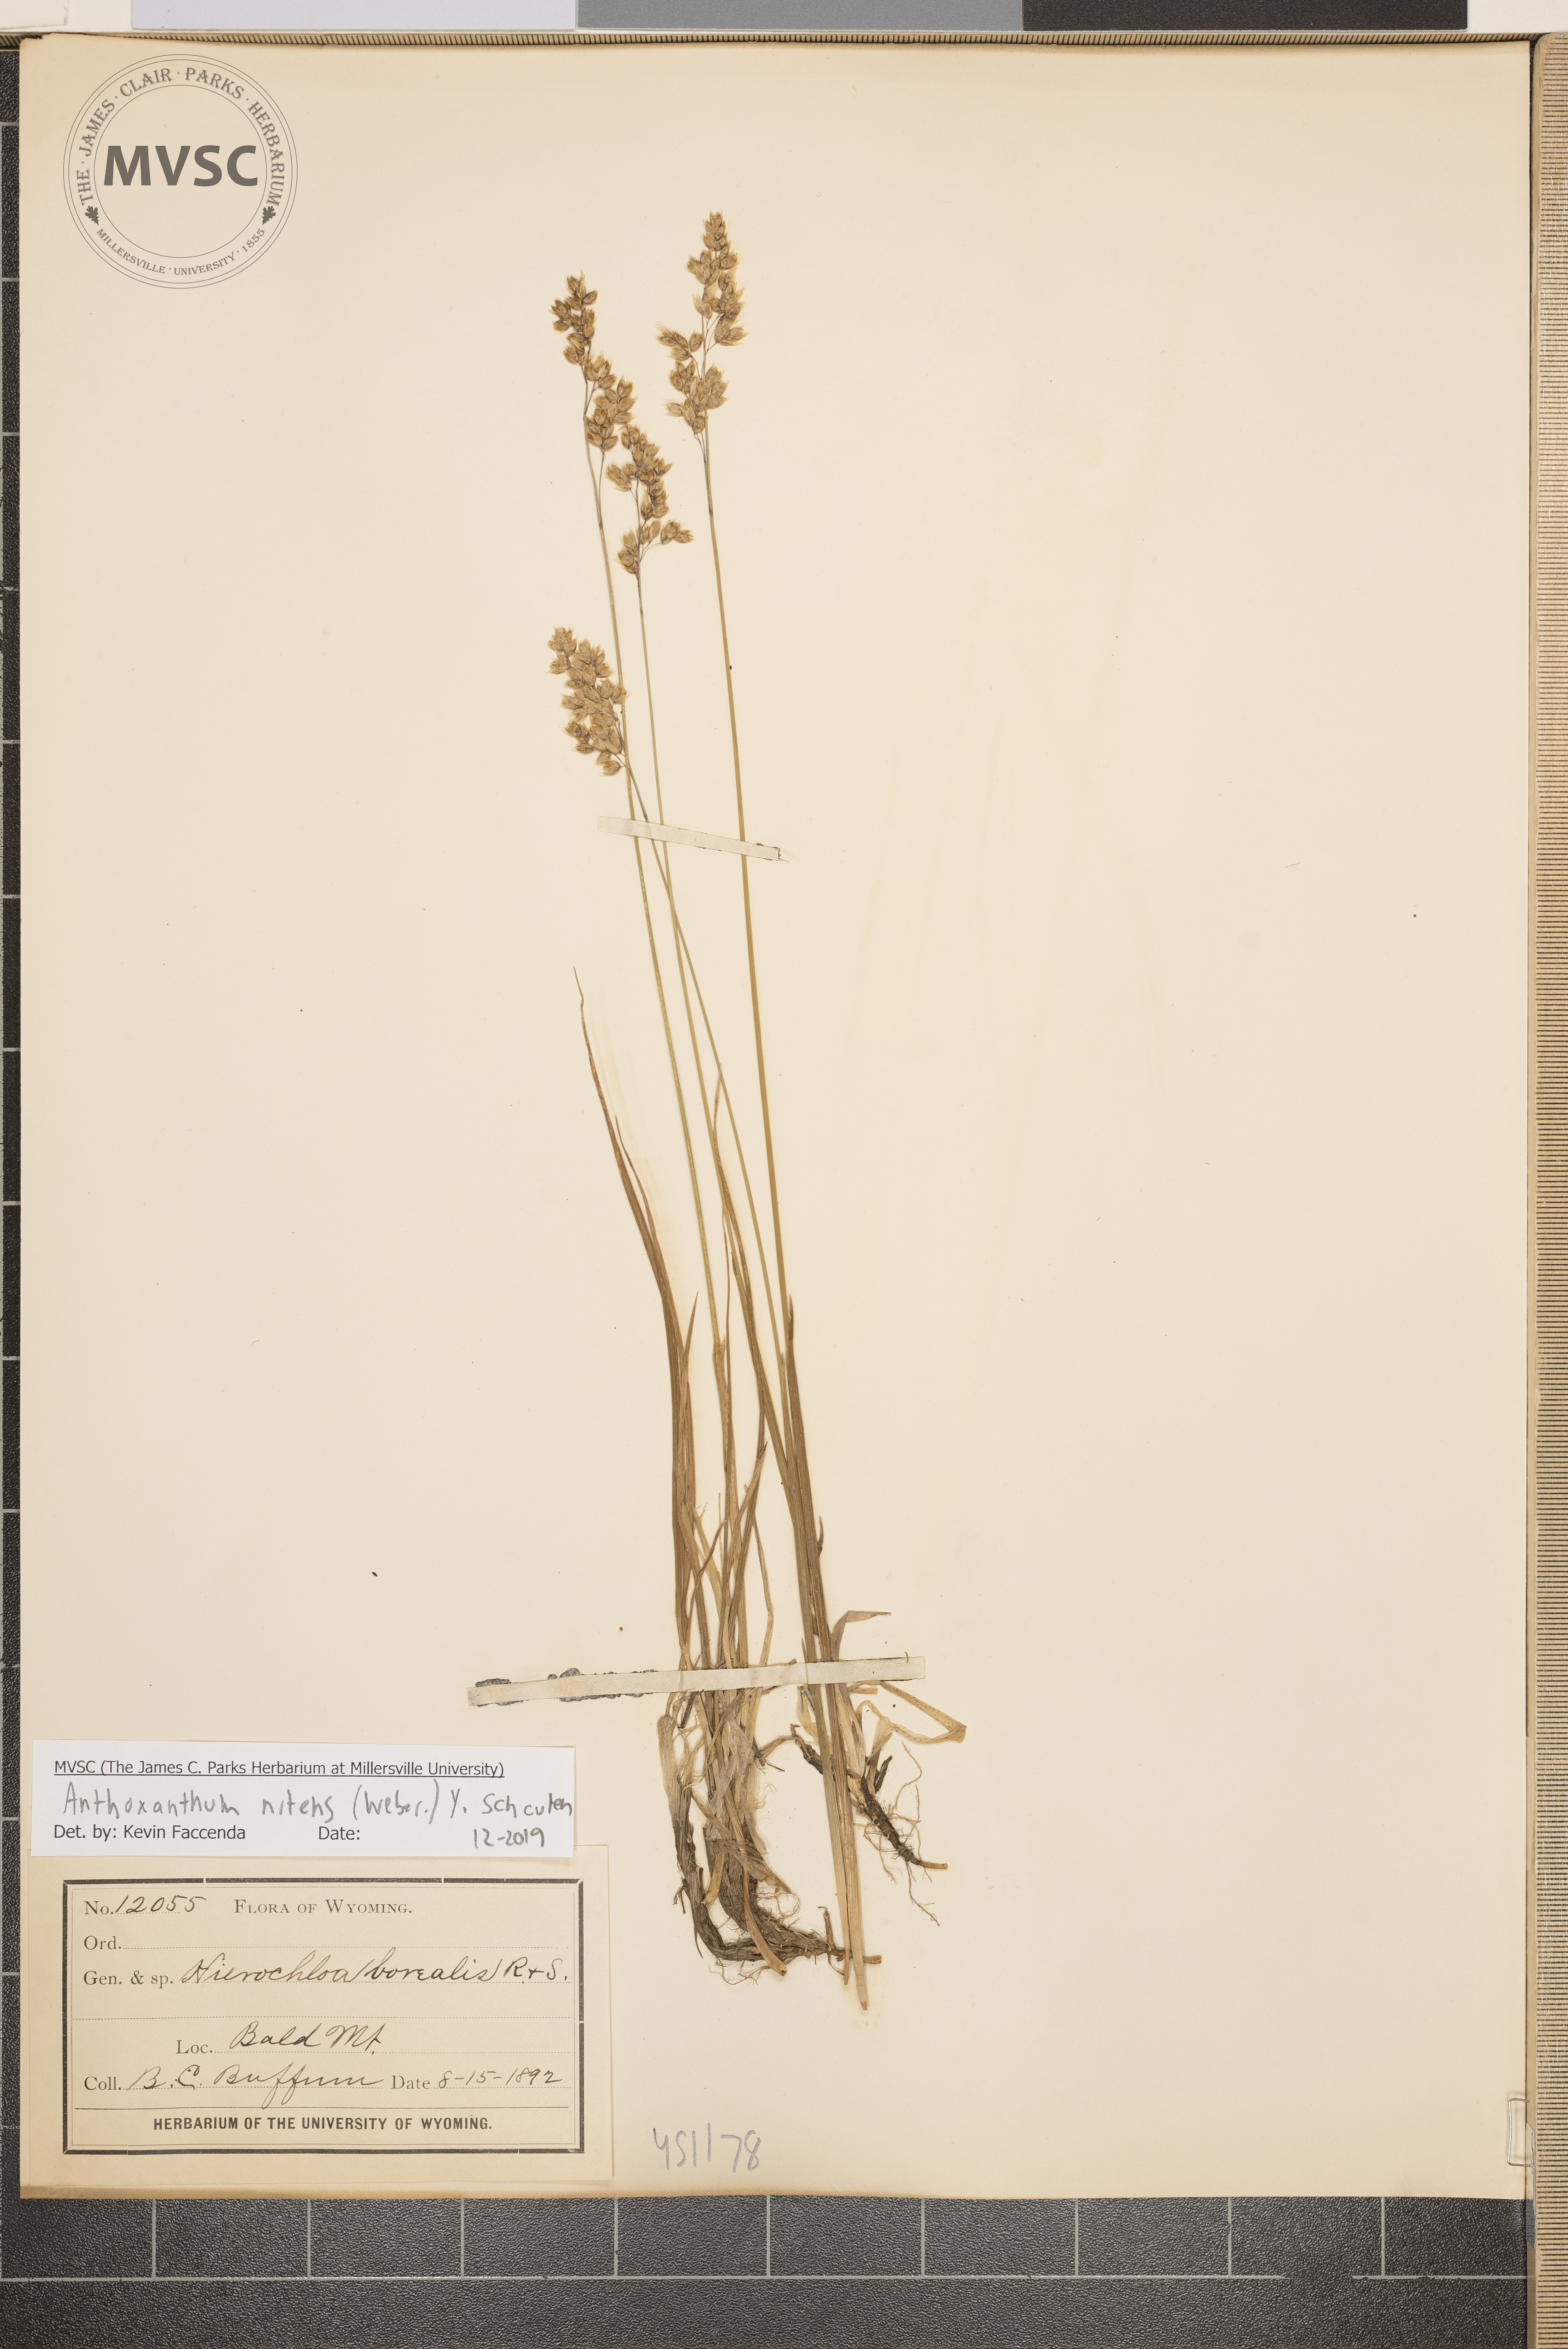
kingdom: Plantae
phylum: Tracheophyta
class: Liliopsida
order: Poales
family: Poaceae
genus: Anthoxanthum
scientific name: Anthoxanthum nitens
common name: Holy grass
